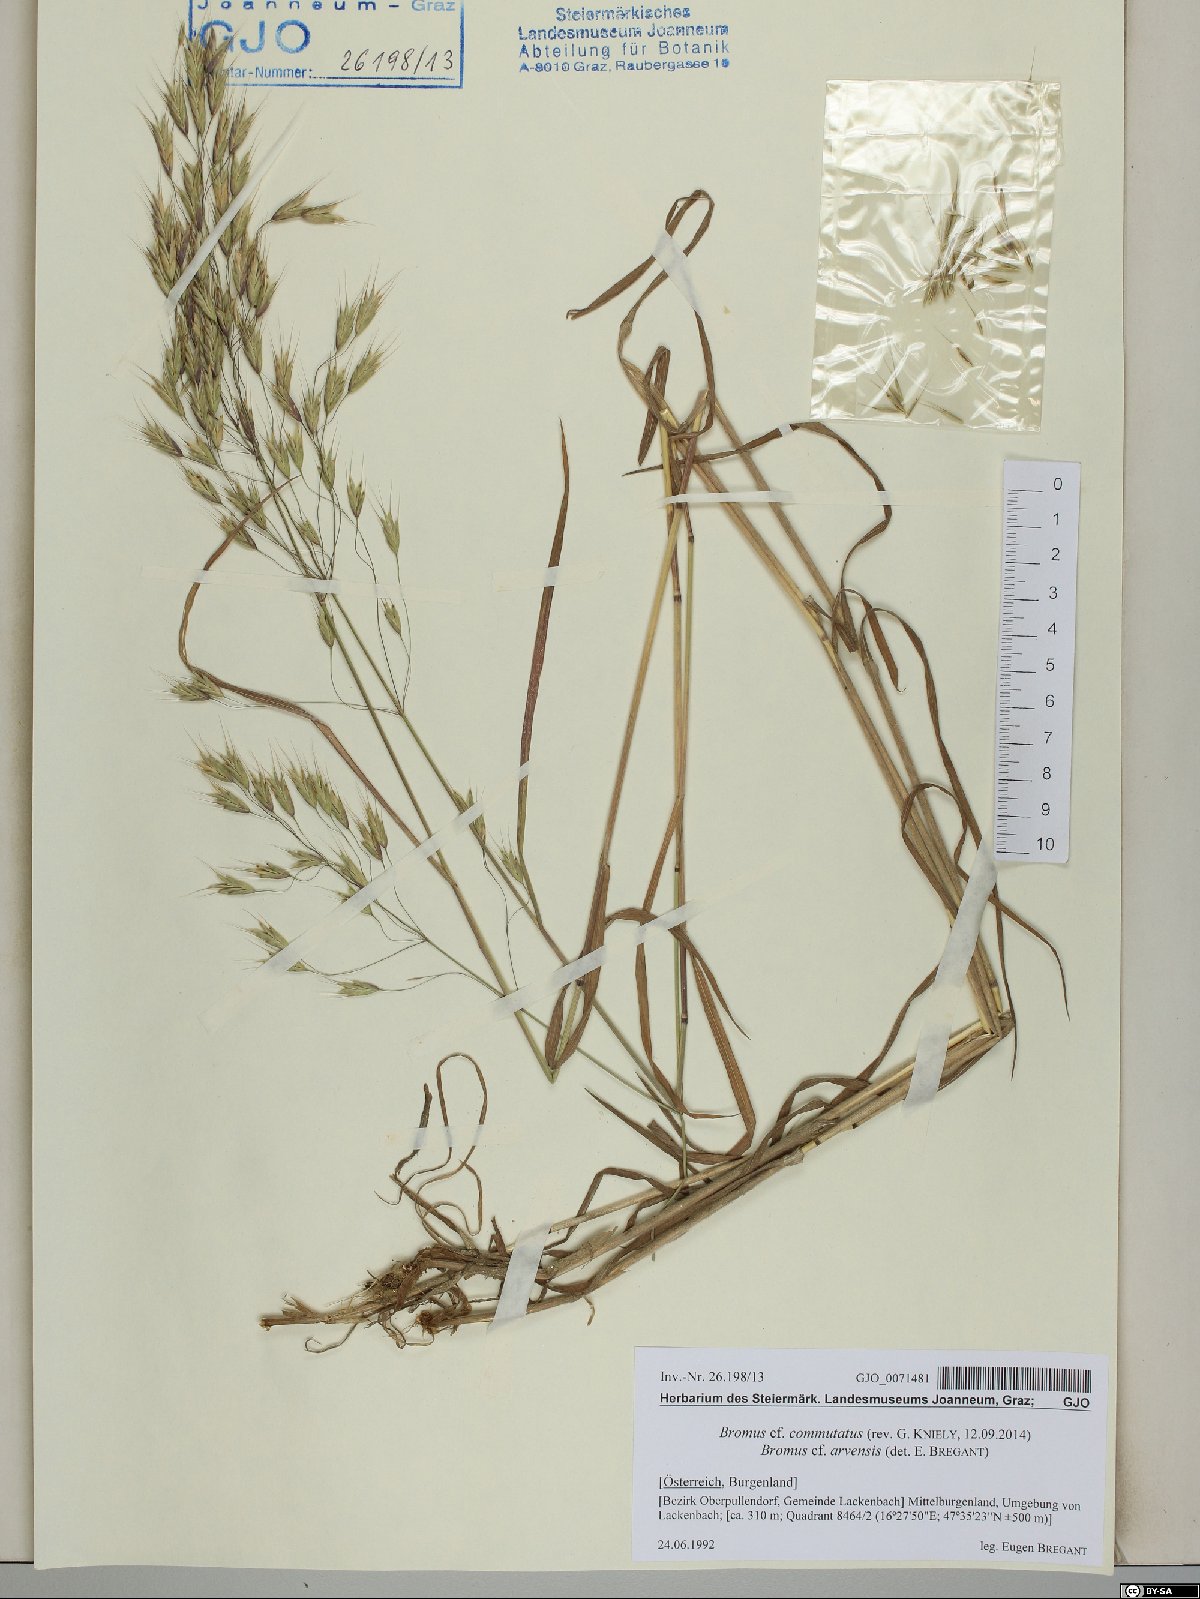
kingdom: Plantae
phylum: Tracheophyta
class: Liliopsida
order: Poales
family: Poaceae
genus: Bromus
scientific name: Bromus commutatus
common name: Meadow brome
